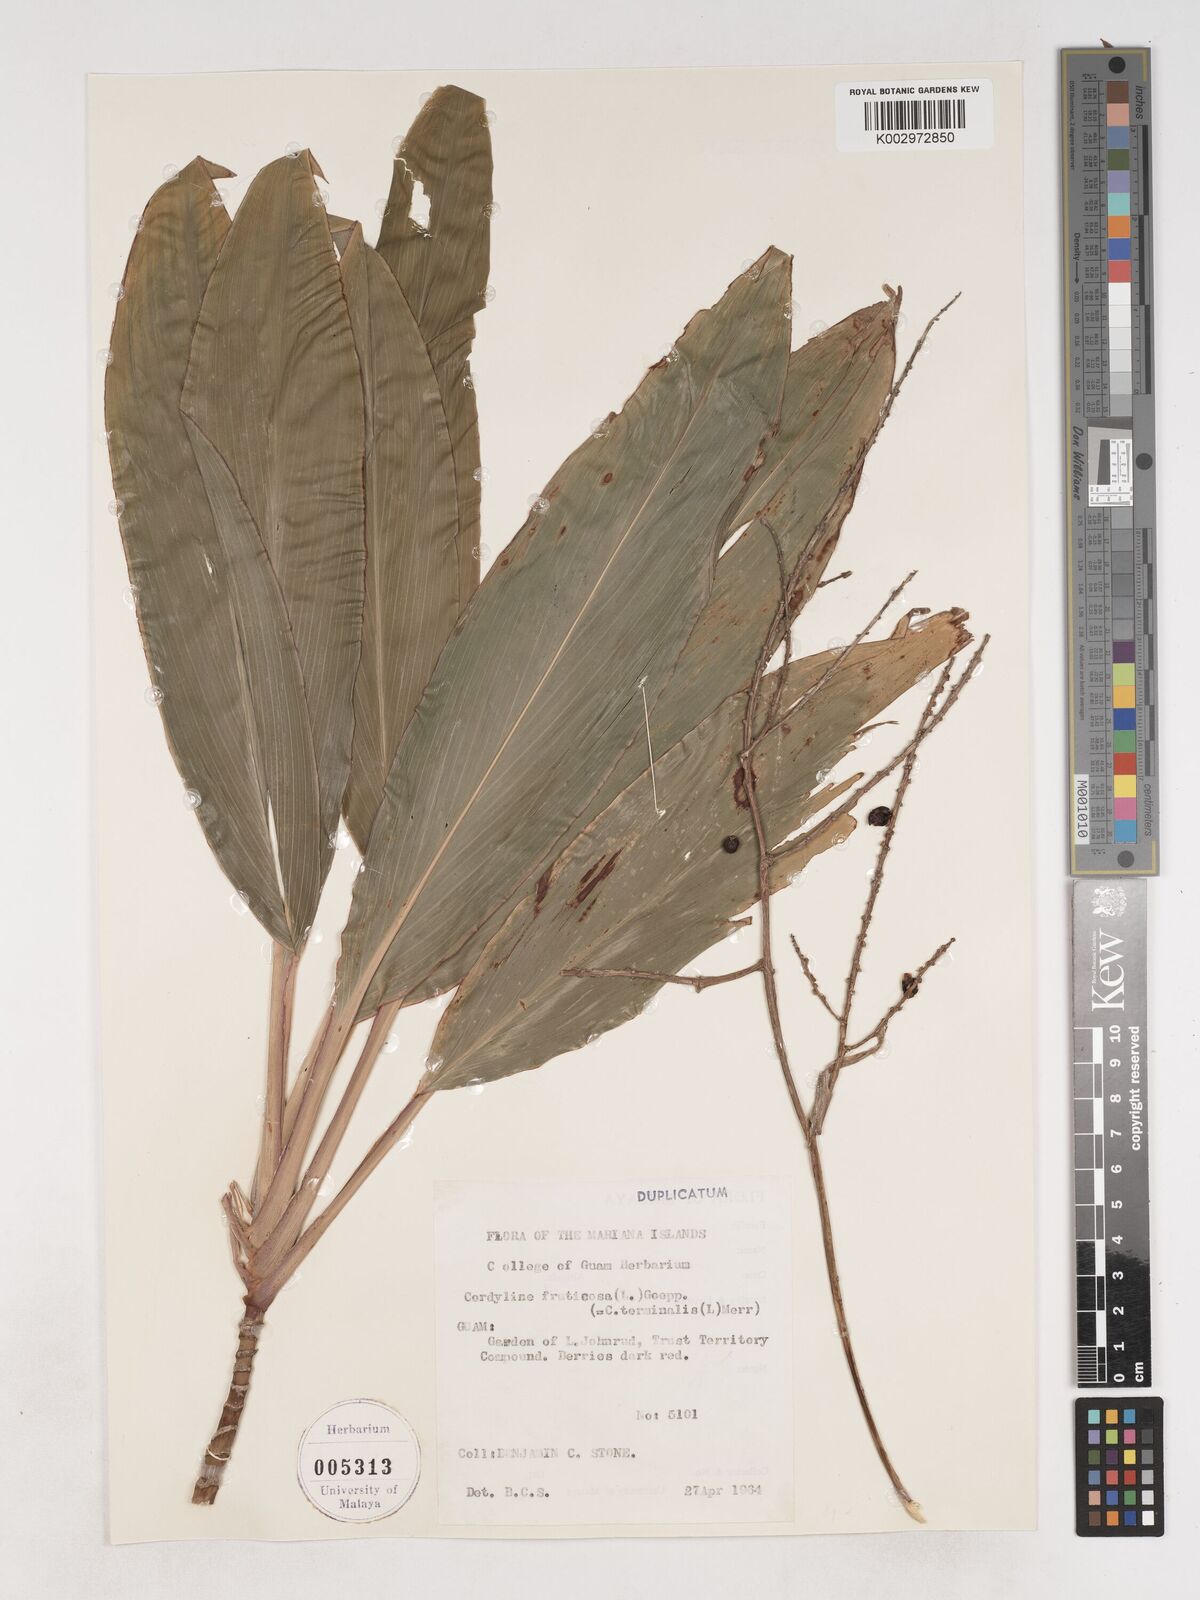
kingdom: Plantae
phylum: Tracheophyta
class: Liliopsida
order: Asparagales
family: Asparagaceae
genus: Cordyline
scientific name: Cordyline fruticosa
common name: Good-luck-plant
